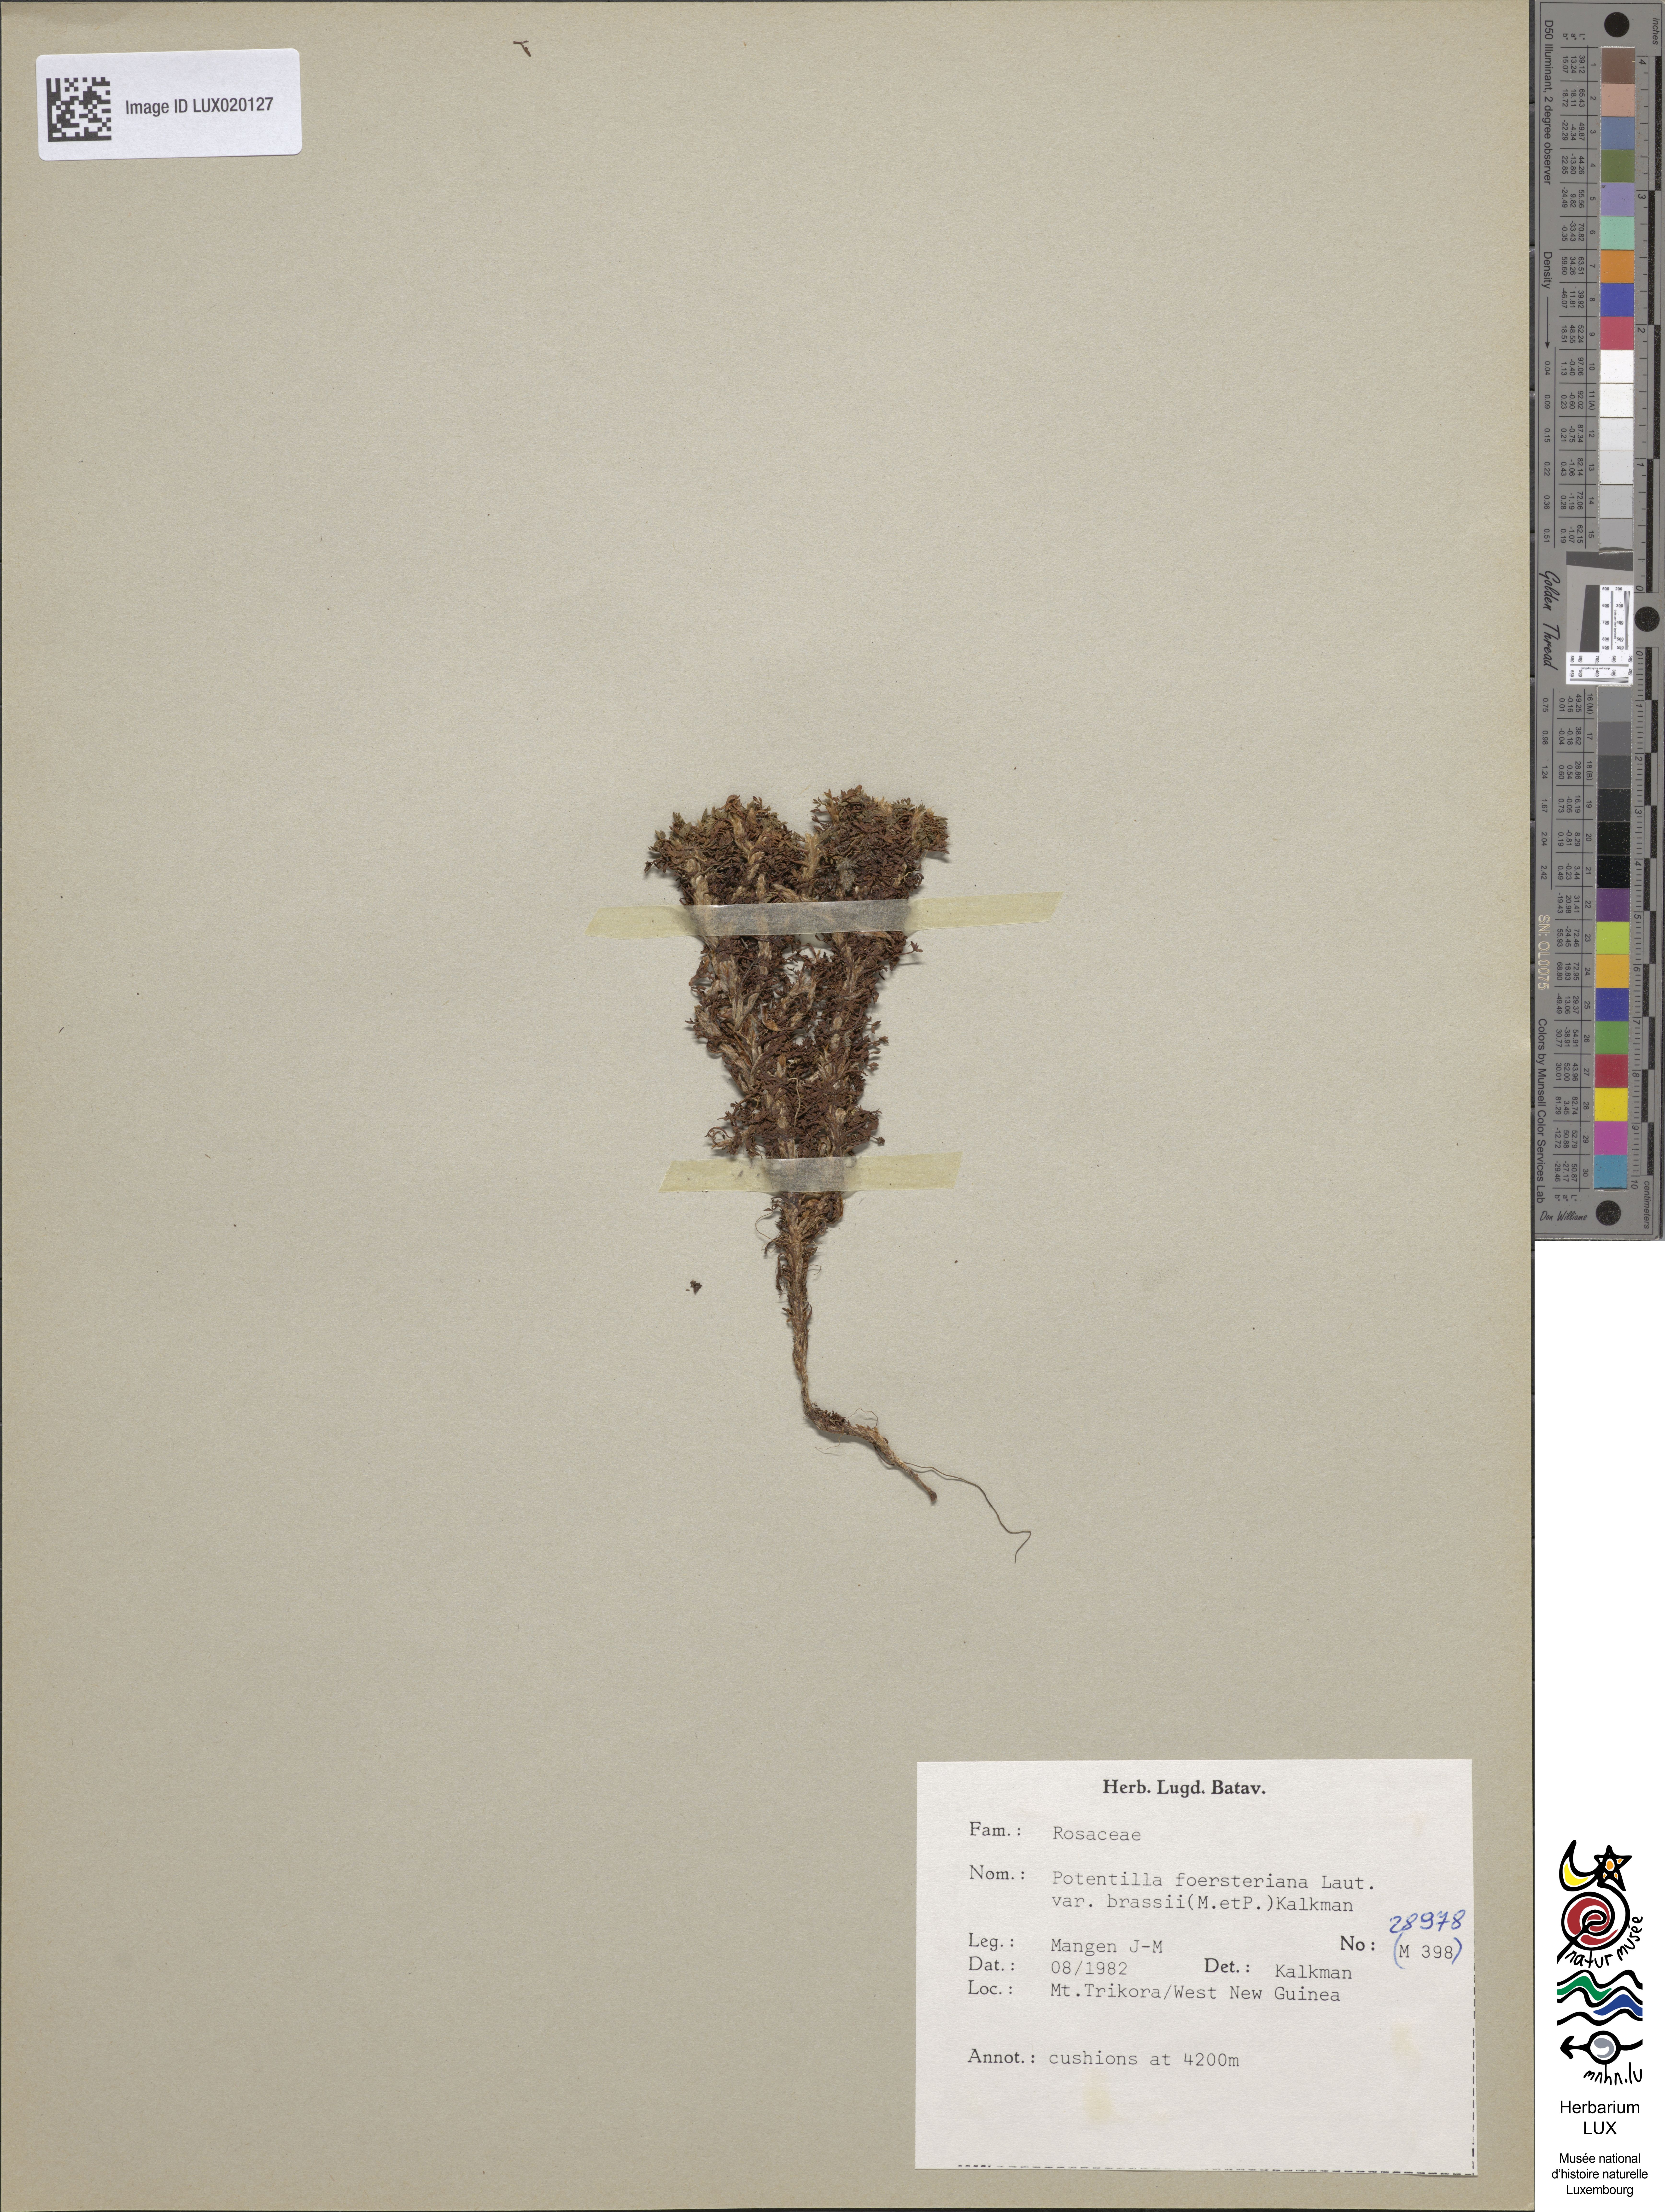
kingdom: Plantae
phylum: Tracheophyta
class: Magnoliopsida
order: Rosales
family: Rosaceae
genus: Argentina
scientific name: Argentina brassii
